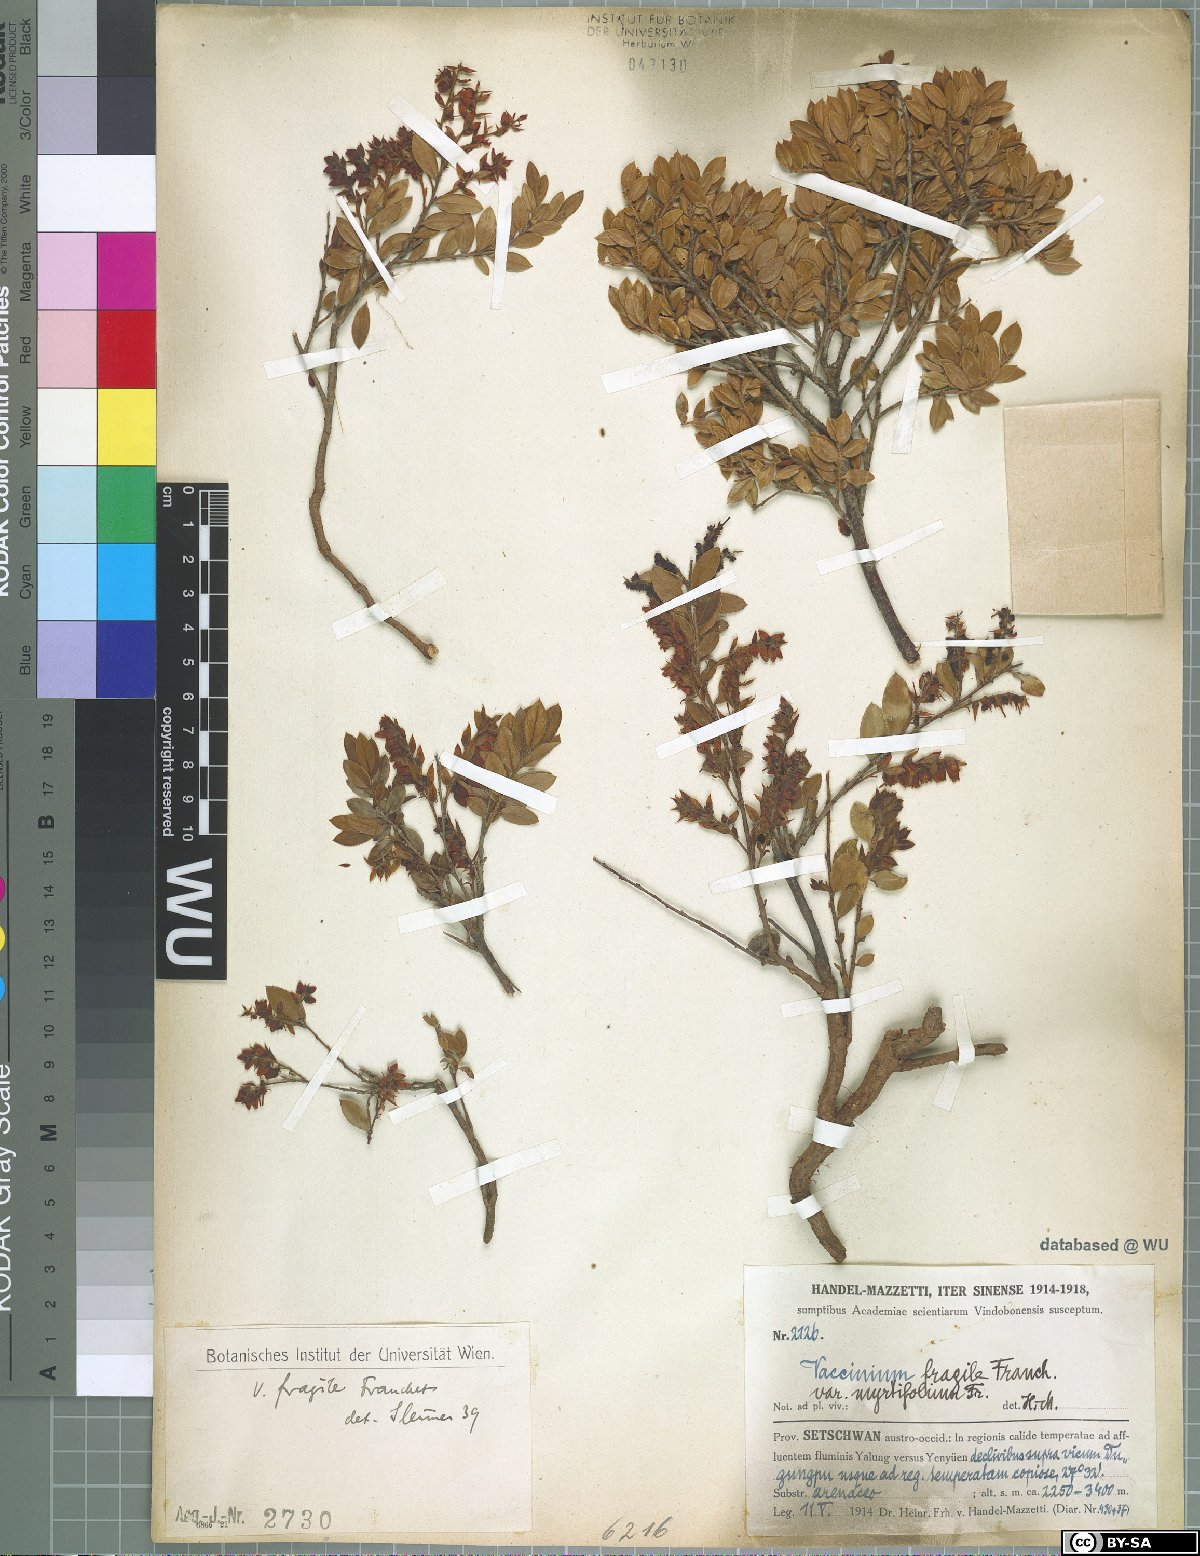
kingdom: Plantae
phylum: Tracheophyta
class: Magnoliopsida
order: Ericales
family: Ericaceae
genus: Vaccinium
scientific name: Vaccinium fragile
